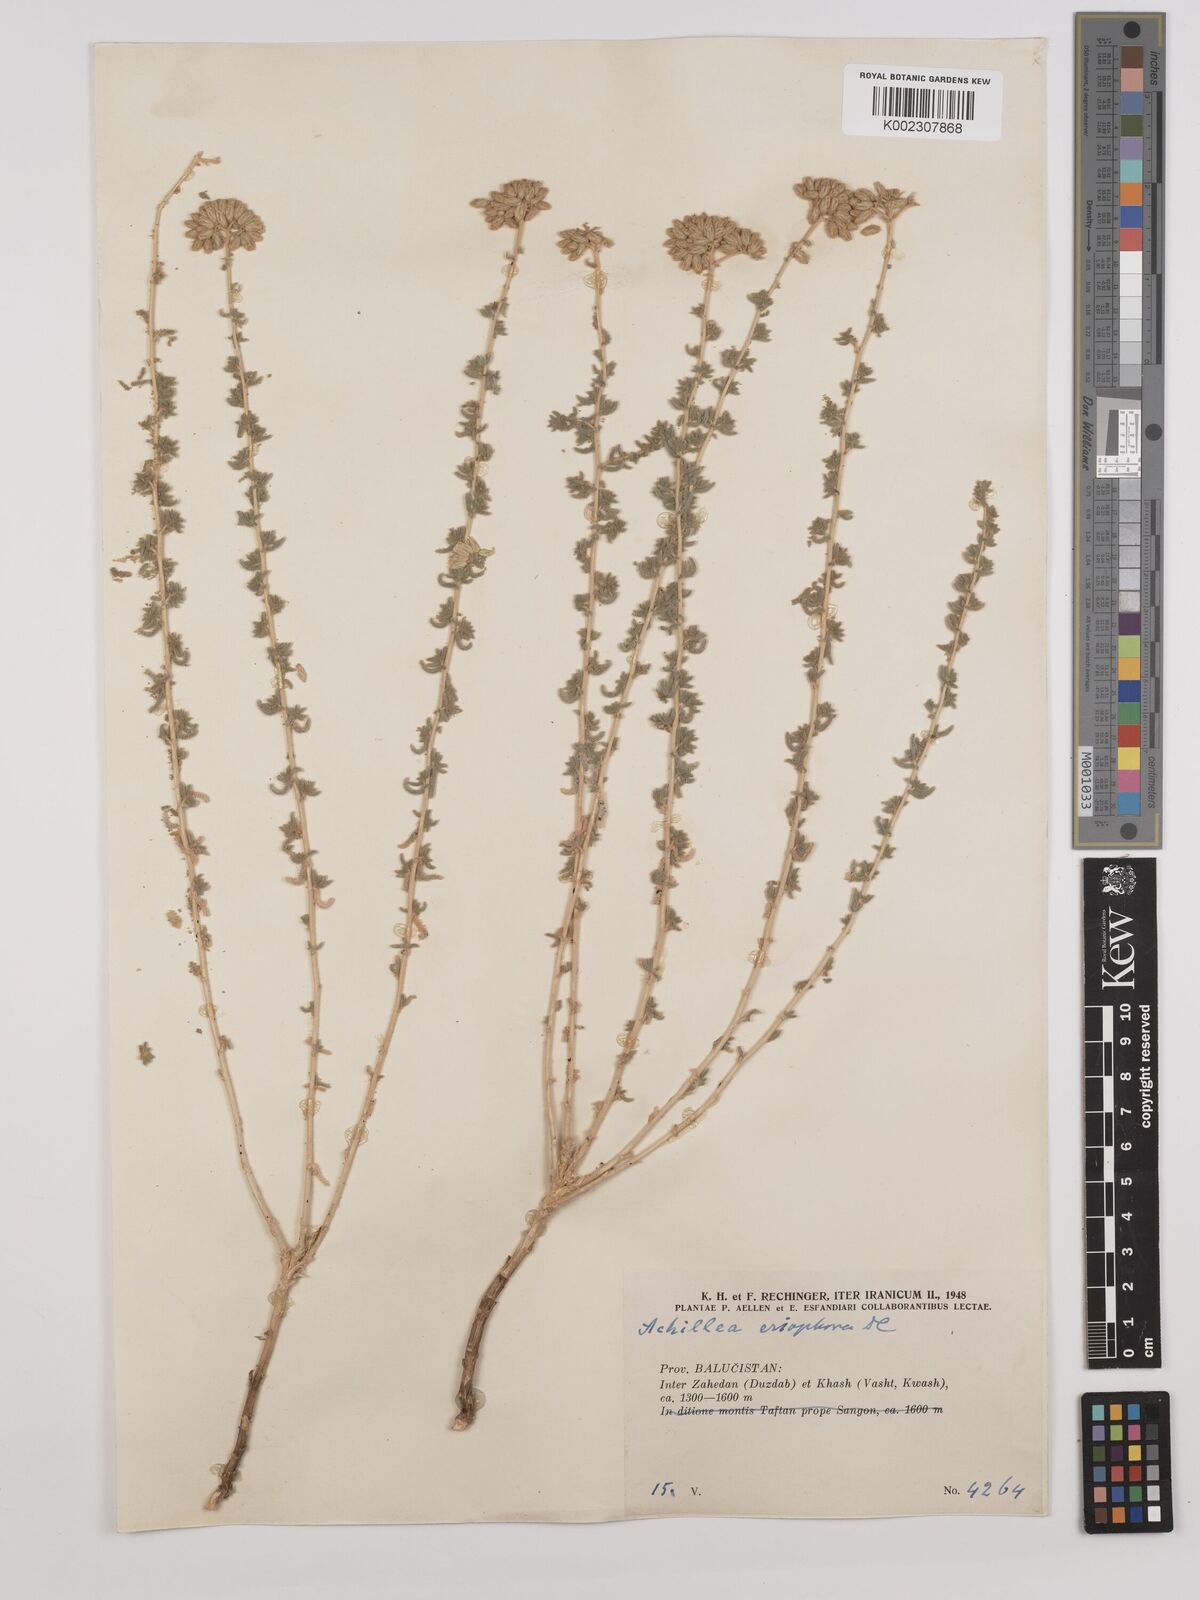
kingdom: Plantae
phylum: Tracheophyta
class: Magnoliopsida
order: Asterales
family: Asteraceae
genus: Achillea
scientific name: Achillea wilhelmsii
